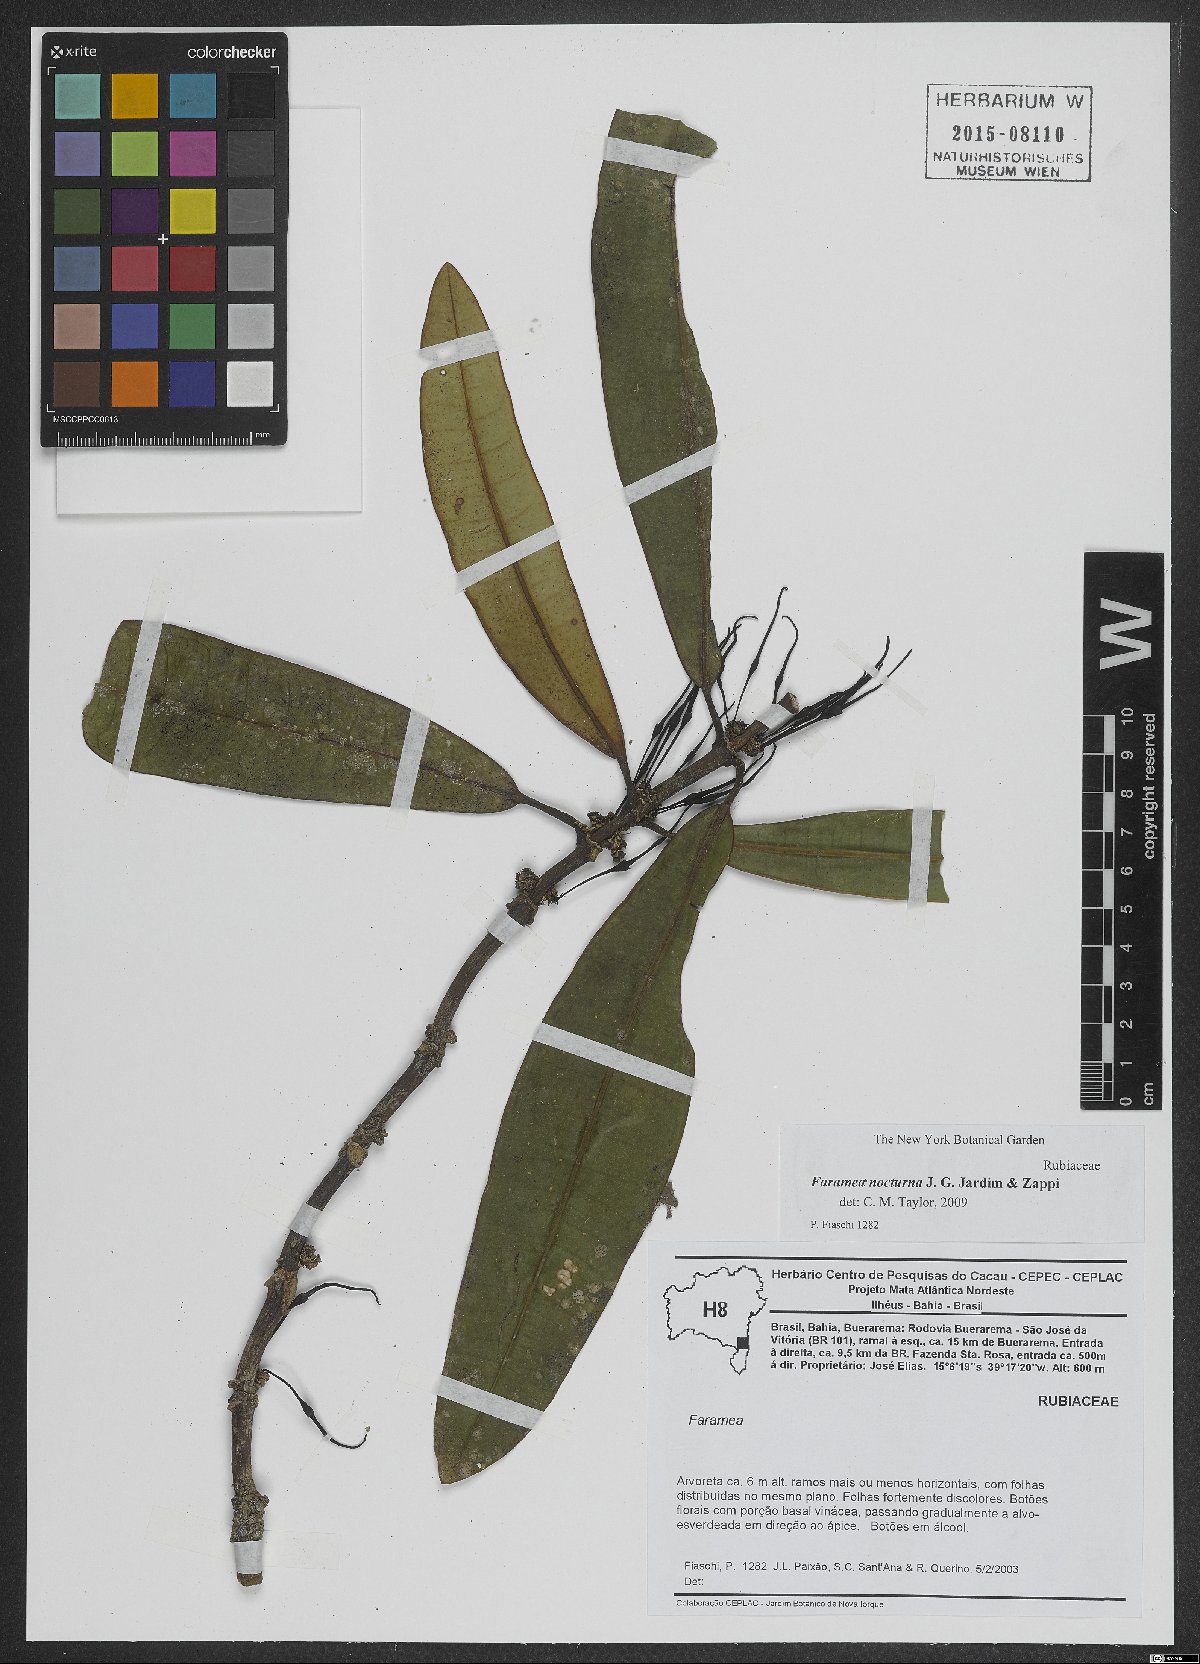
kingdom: Plantae
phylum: Tracheophyta
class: Magnoliopsida
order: Gentianales
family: Rubiaceae
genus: Faramea
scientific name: Faramea nocturna
